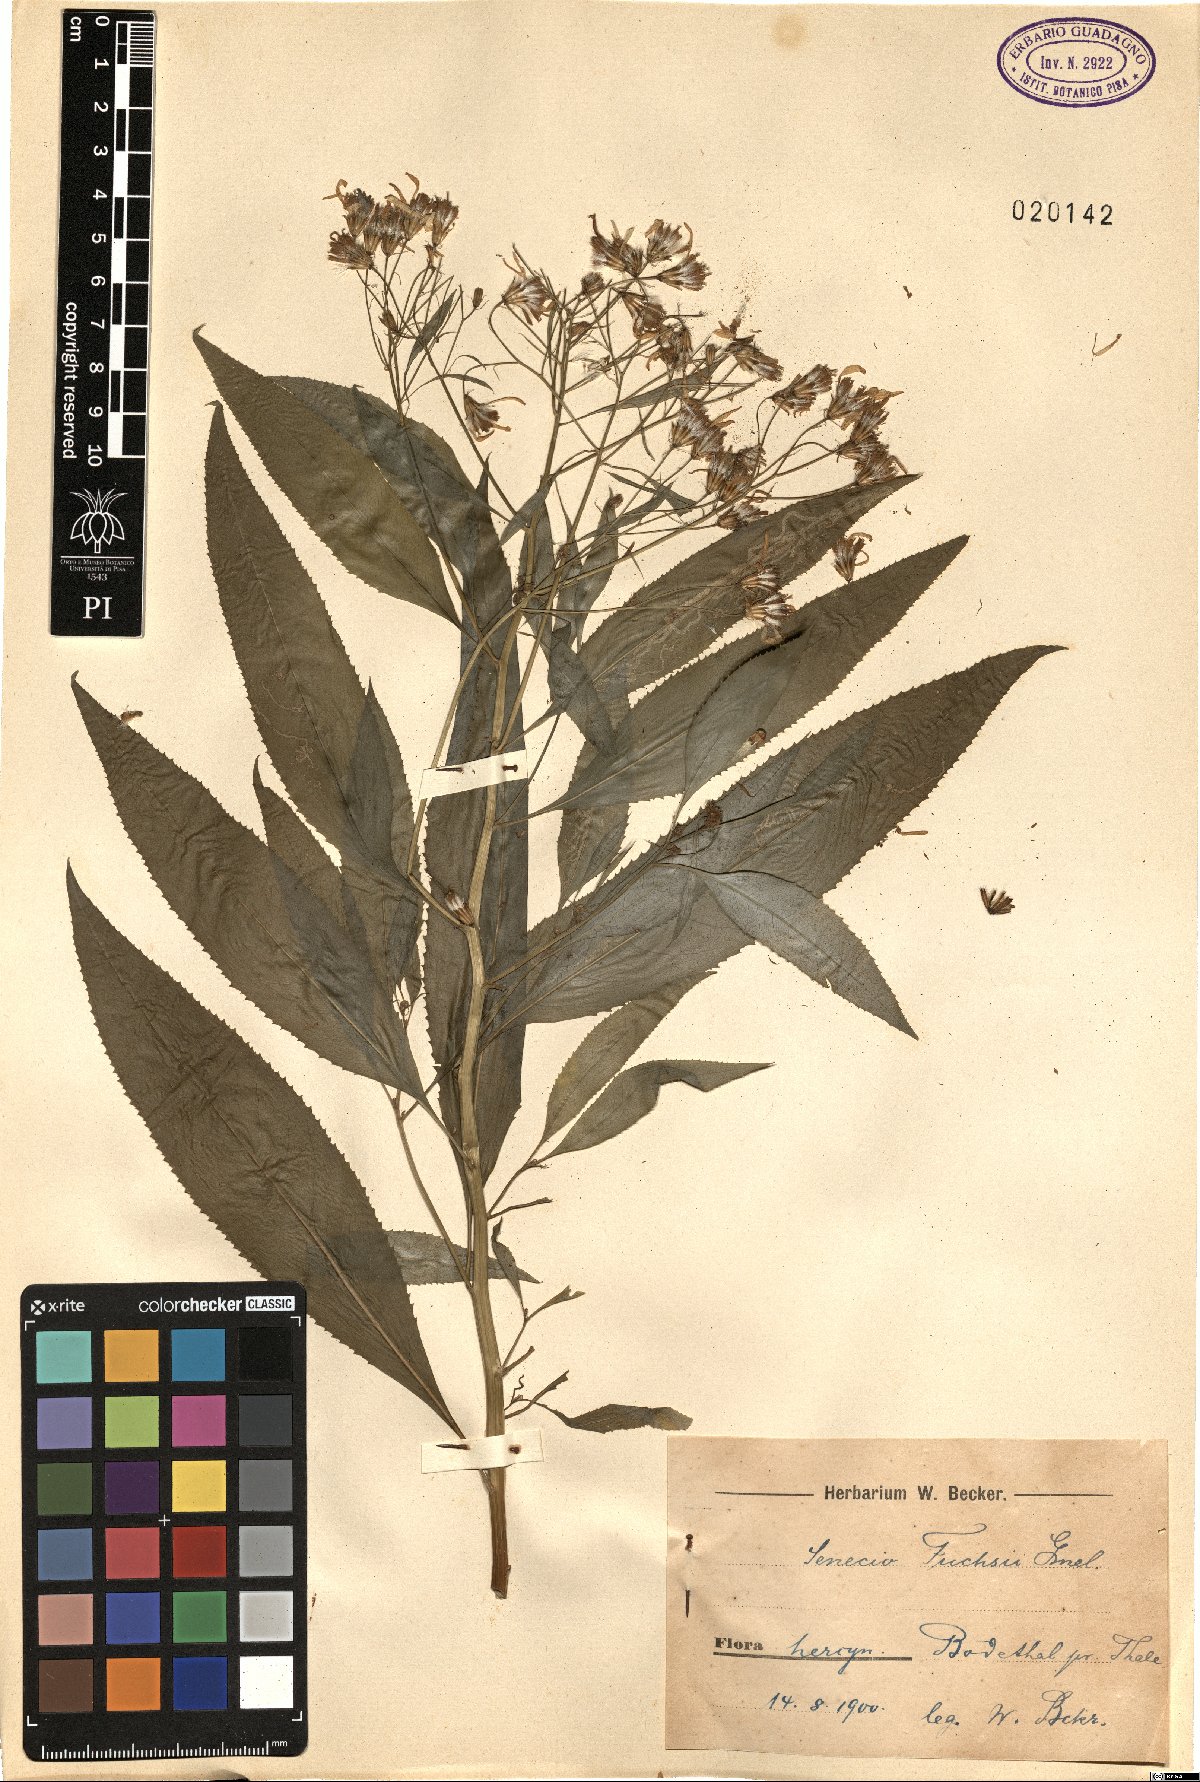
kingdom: Plantae
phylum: Tracheophyta
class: Magnoliopsida
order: Asterales
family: Asteraceae
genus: Senecio
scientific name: Senecio ovatus
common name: Wood ragwort
